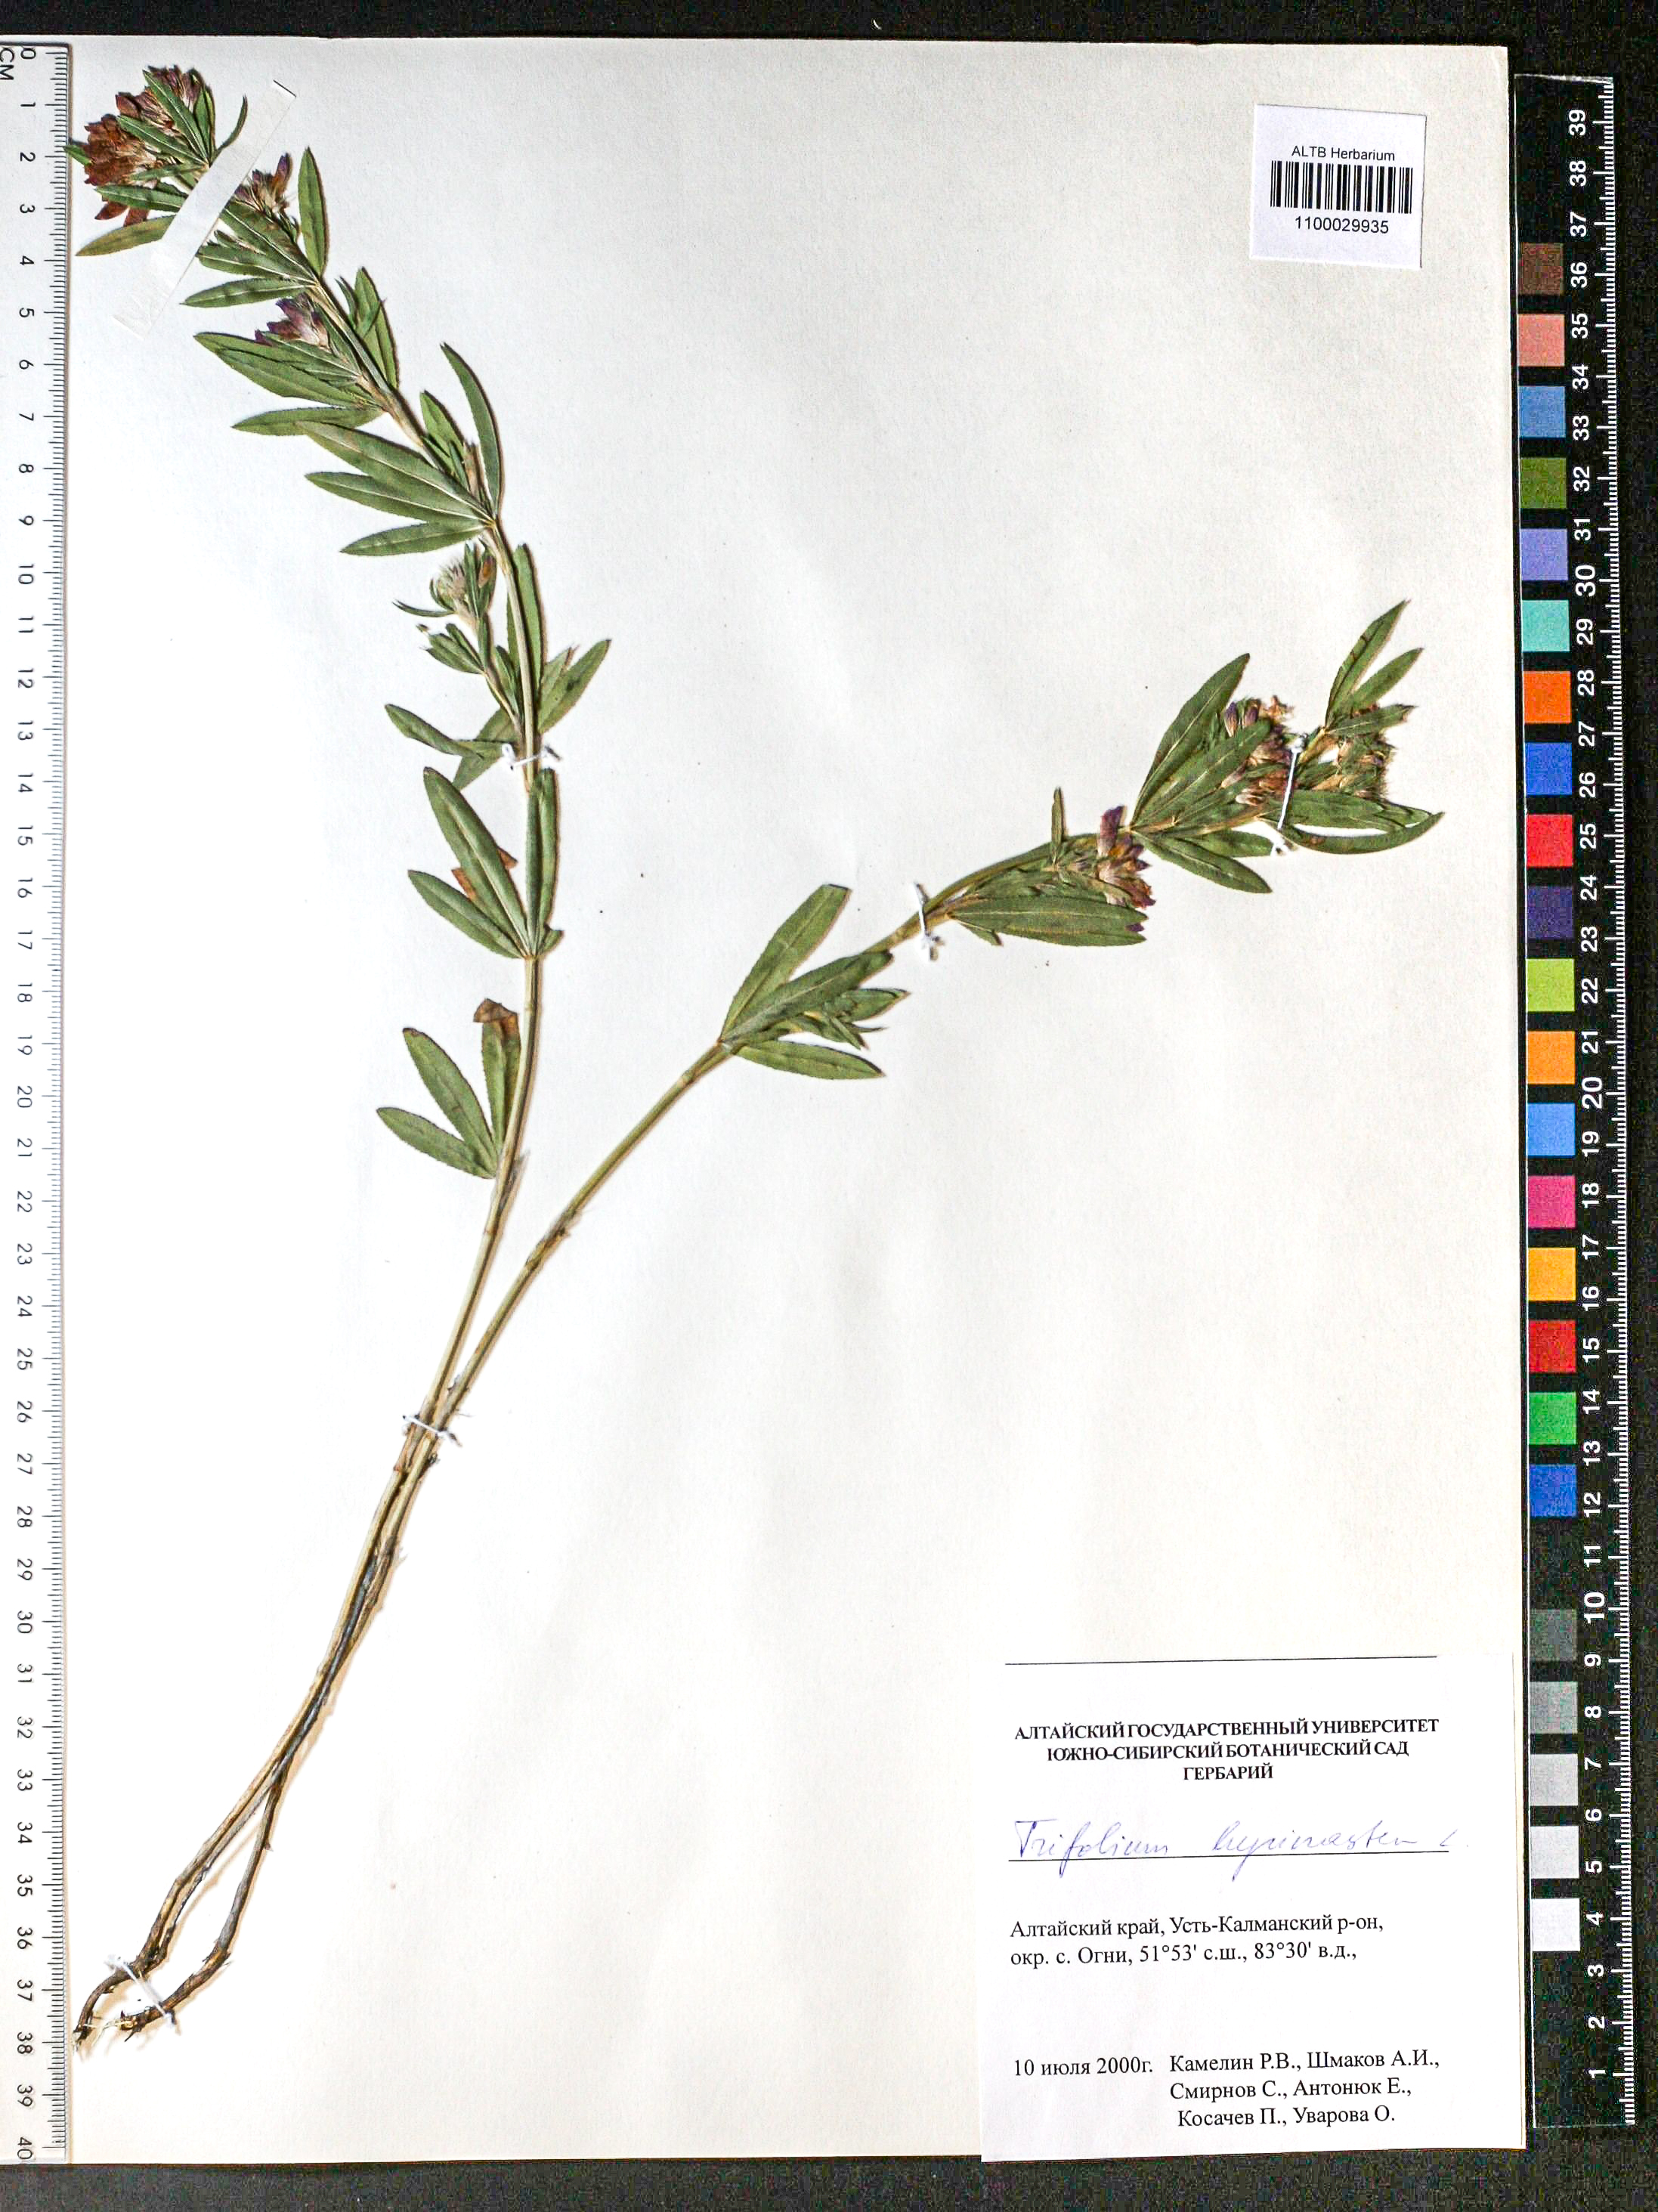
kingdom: Plantae
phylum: Tracheophyta
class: Magnoliopsida
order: Fabales
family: Fabaceae
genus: Trifolium
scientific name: Trifolium lupinaster
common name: Lupine clover
